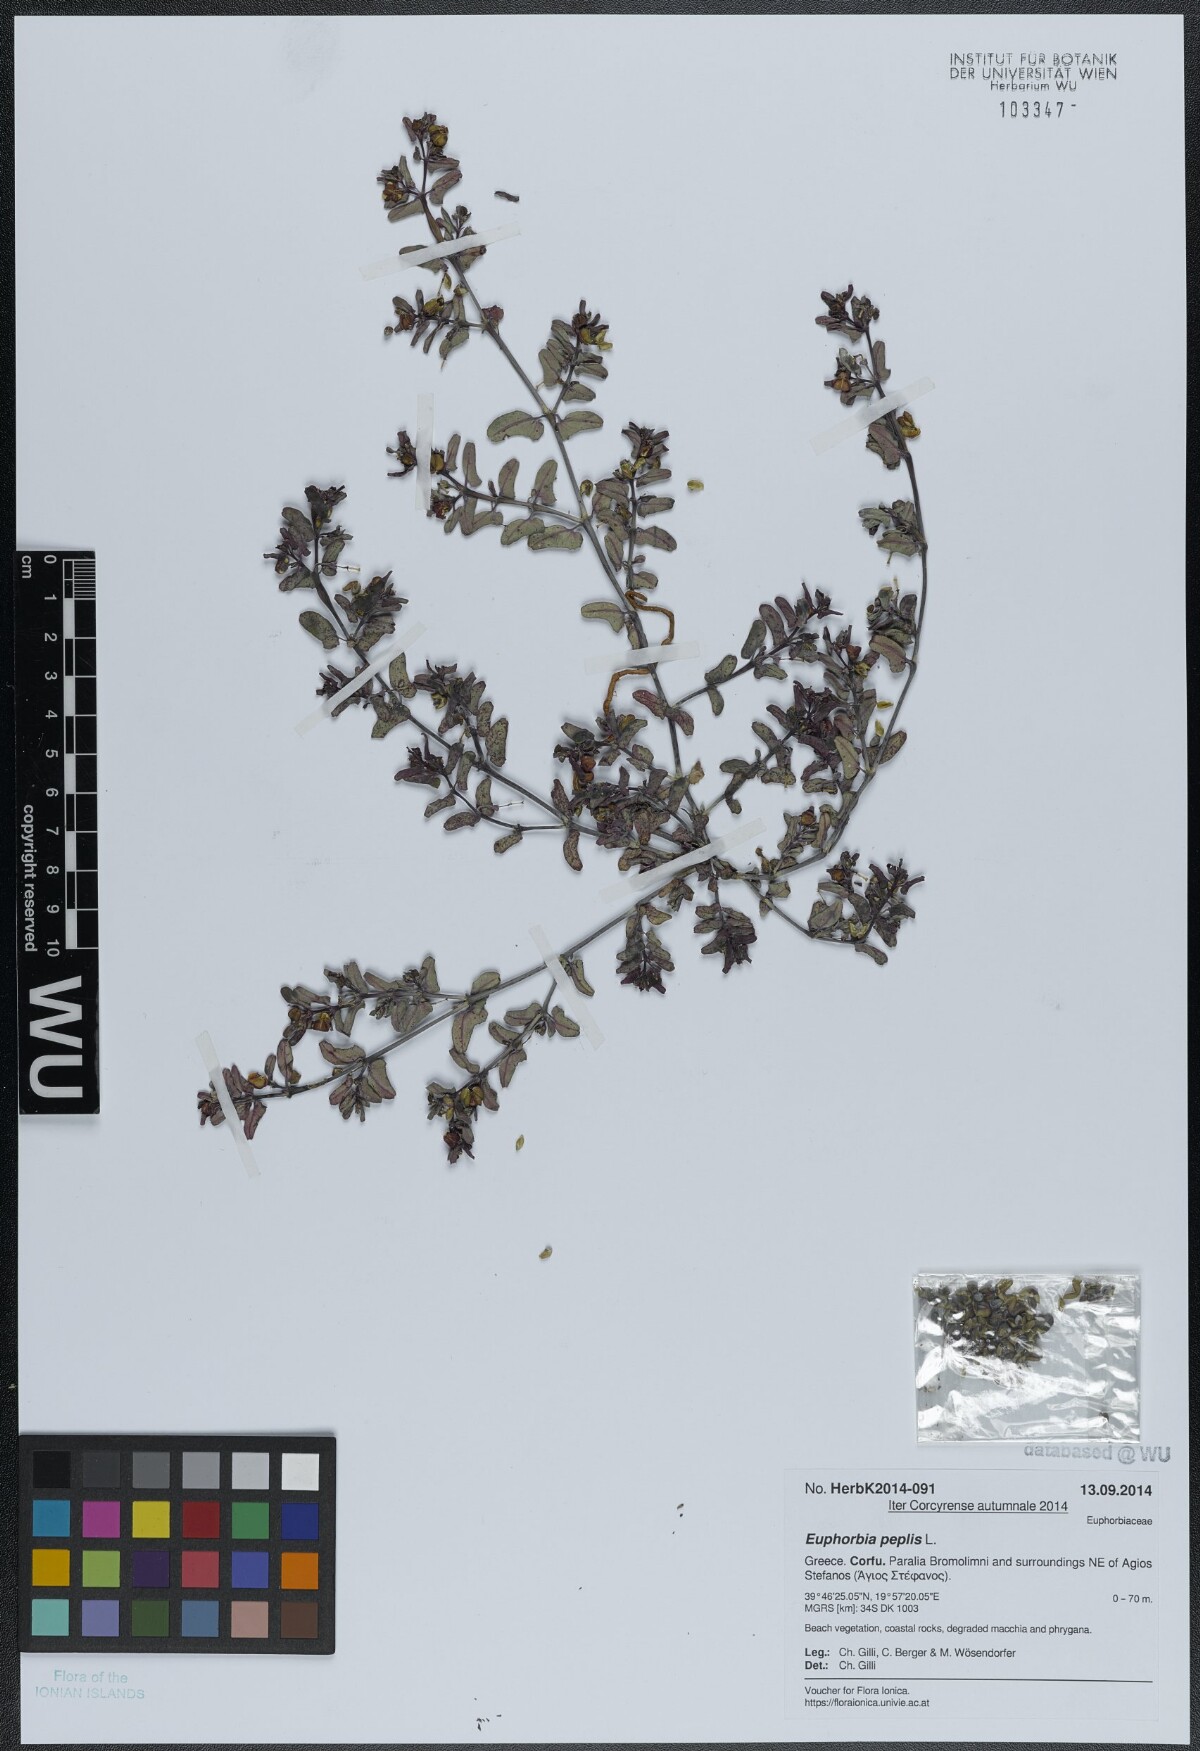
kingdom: Plantae
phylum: Tracheophyta
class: Magnoliopsida
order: Malpighiales
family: Euphorbiaceae
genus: Euphorbia
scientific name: Euphorbia peplis
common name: Purple spurge
